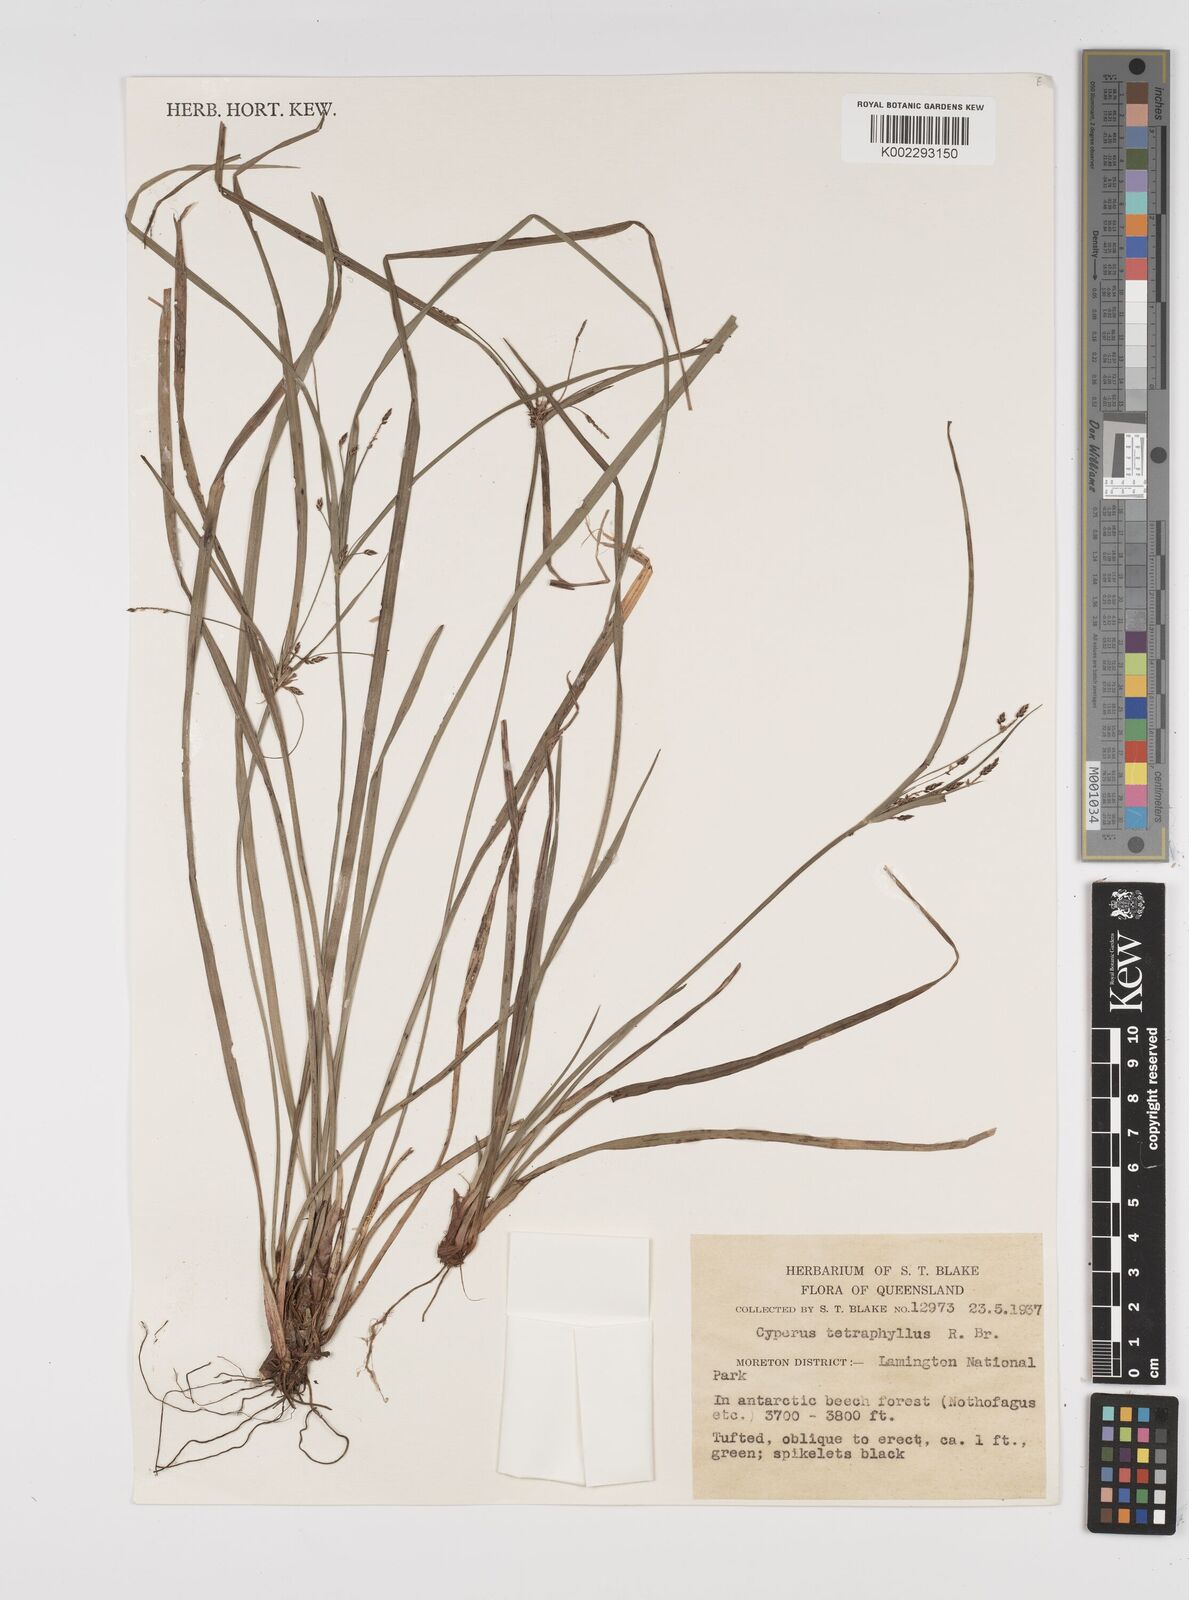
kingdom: Plantae
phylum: Tracheophyta
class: Liliopsida
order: Poales
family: Cyperaceae
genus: Cyperus
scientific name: Cyperus tetraphyllus
